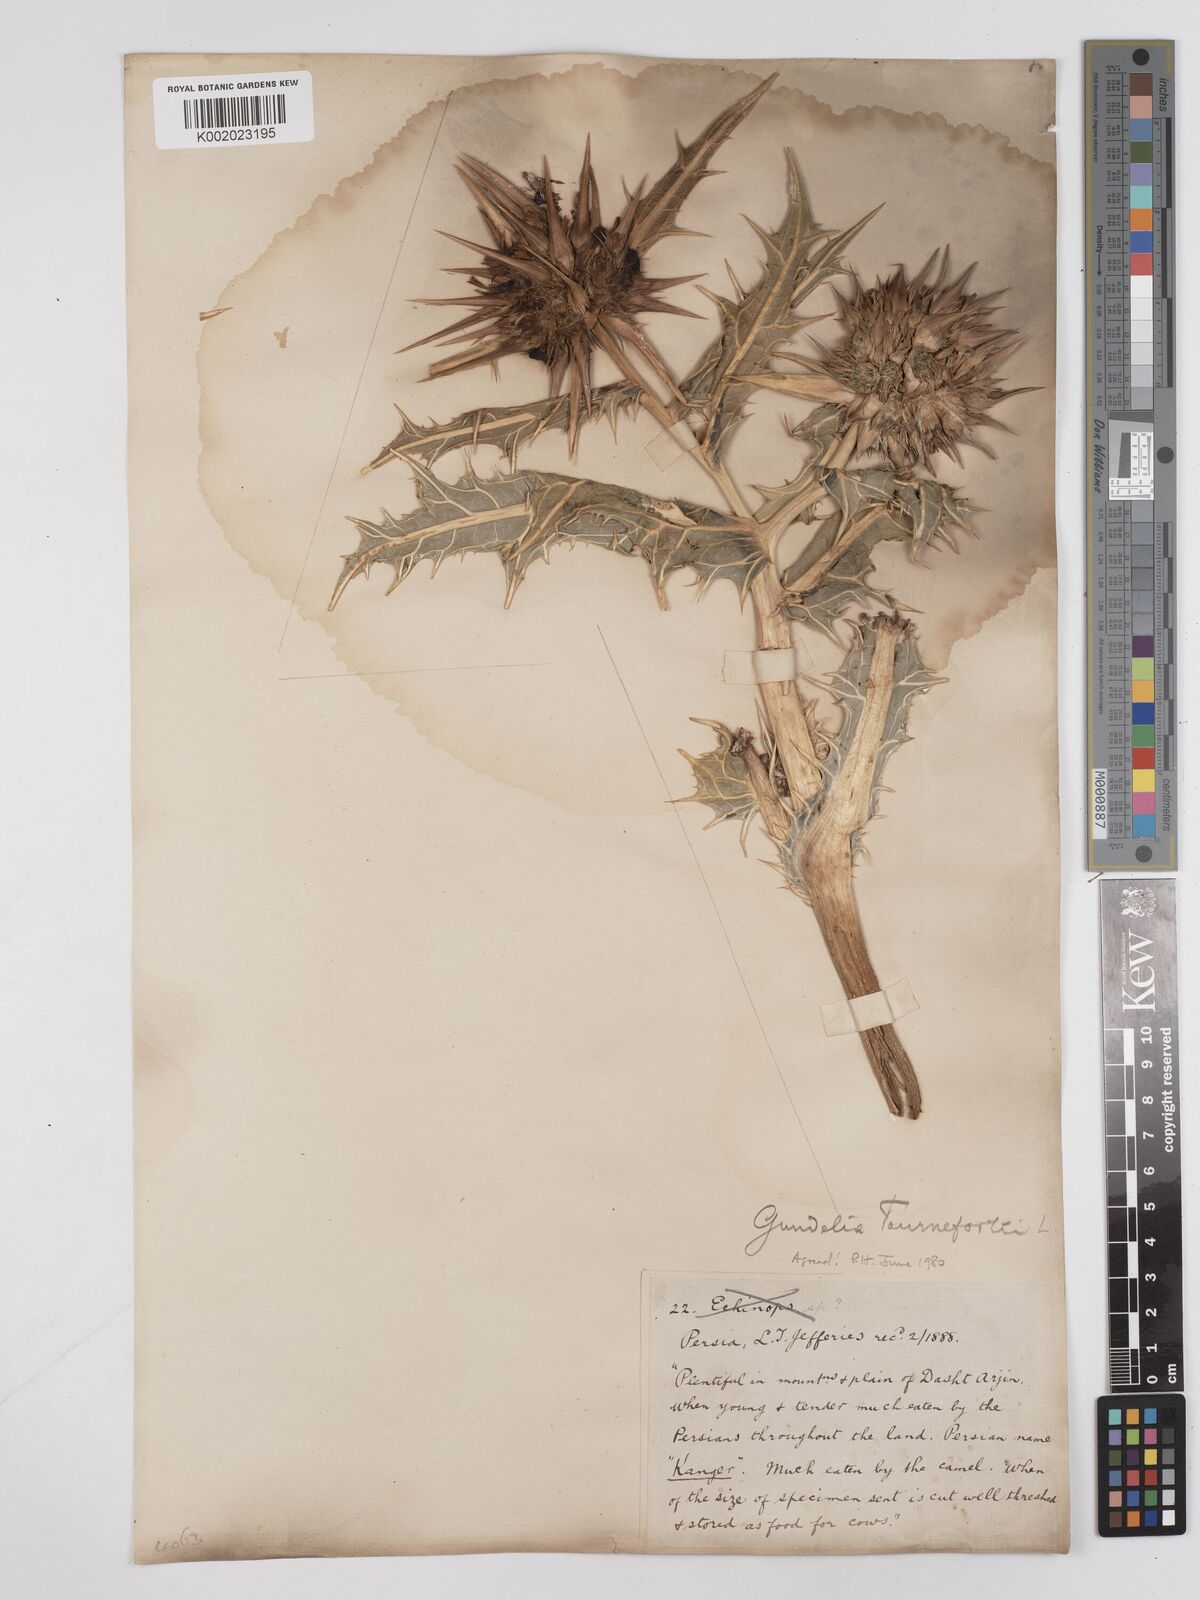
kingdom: Plantae
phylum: Tracheophyta
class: Magnoliopsida
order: Asterales
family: Asteraceae
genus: Gundelia
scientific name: Gundelia tournefortii
